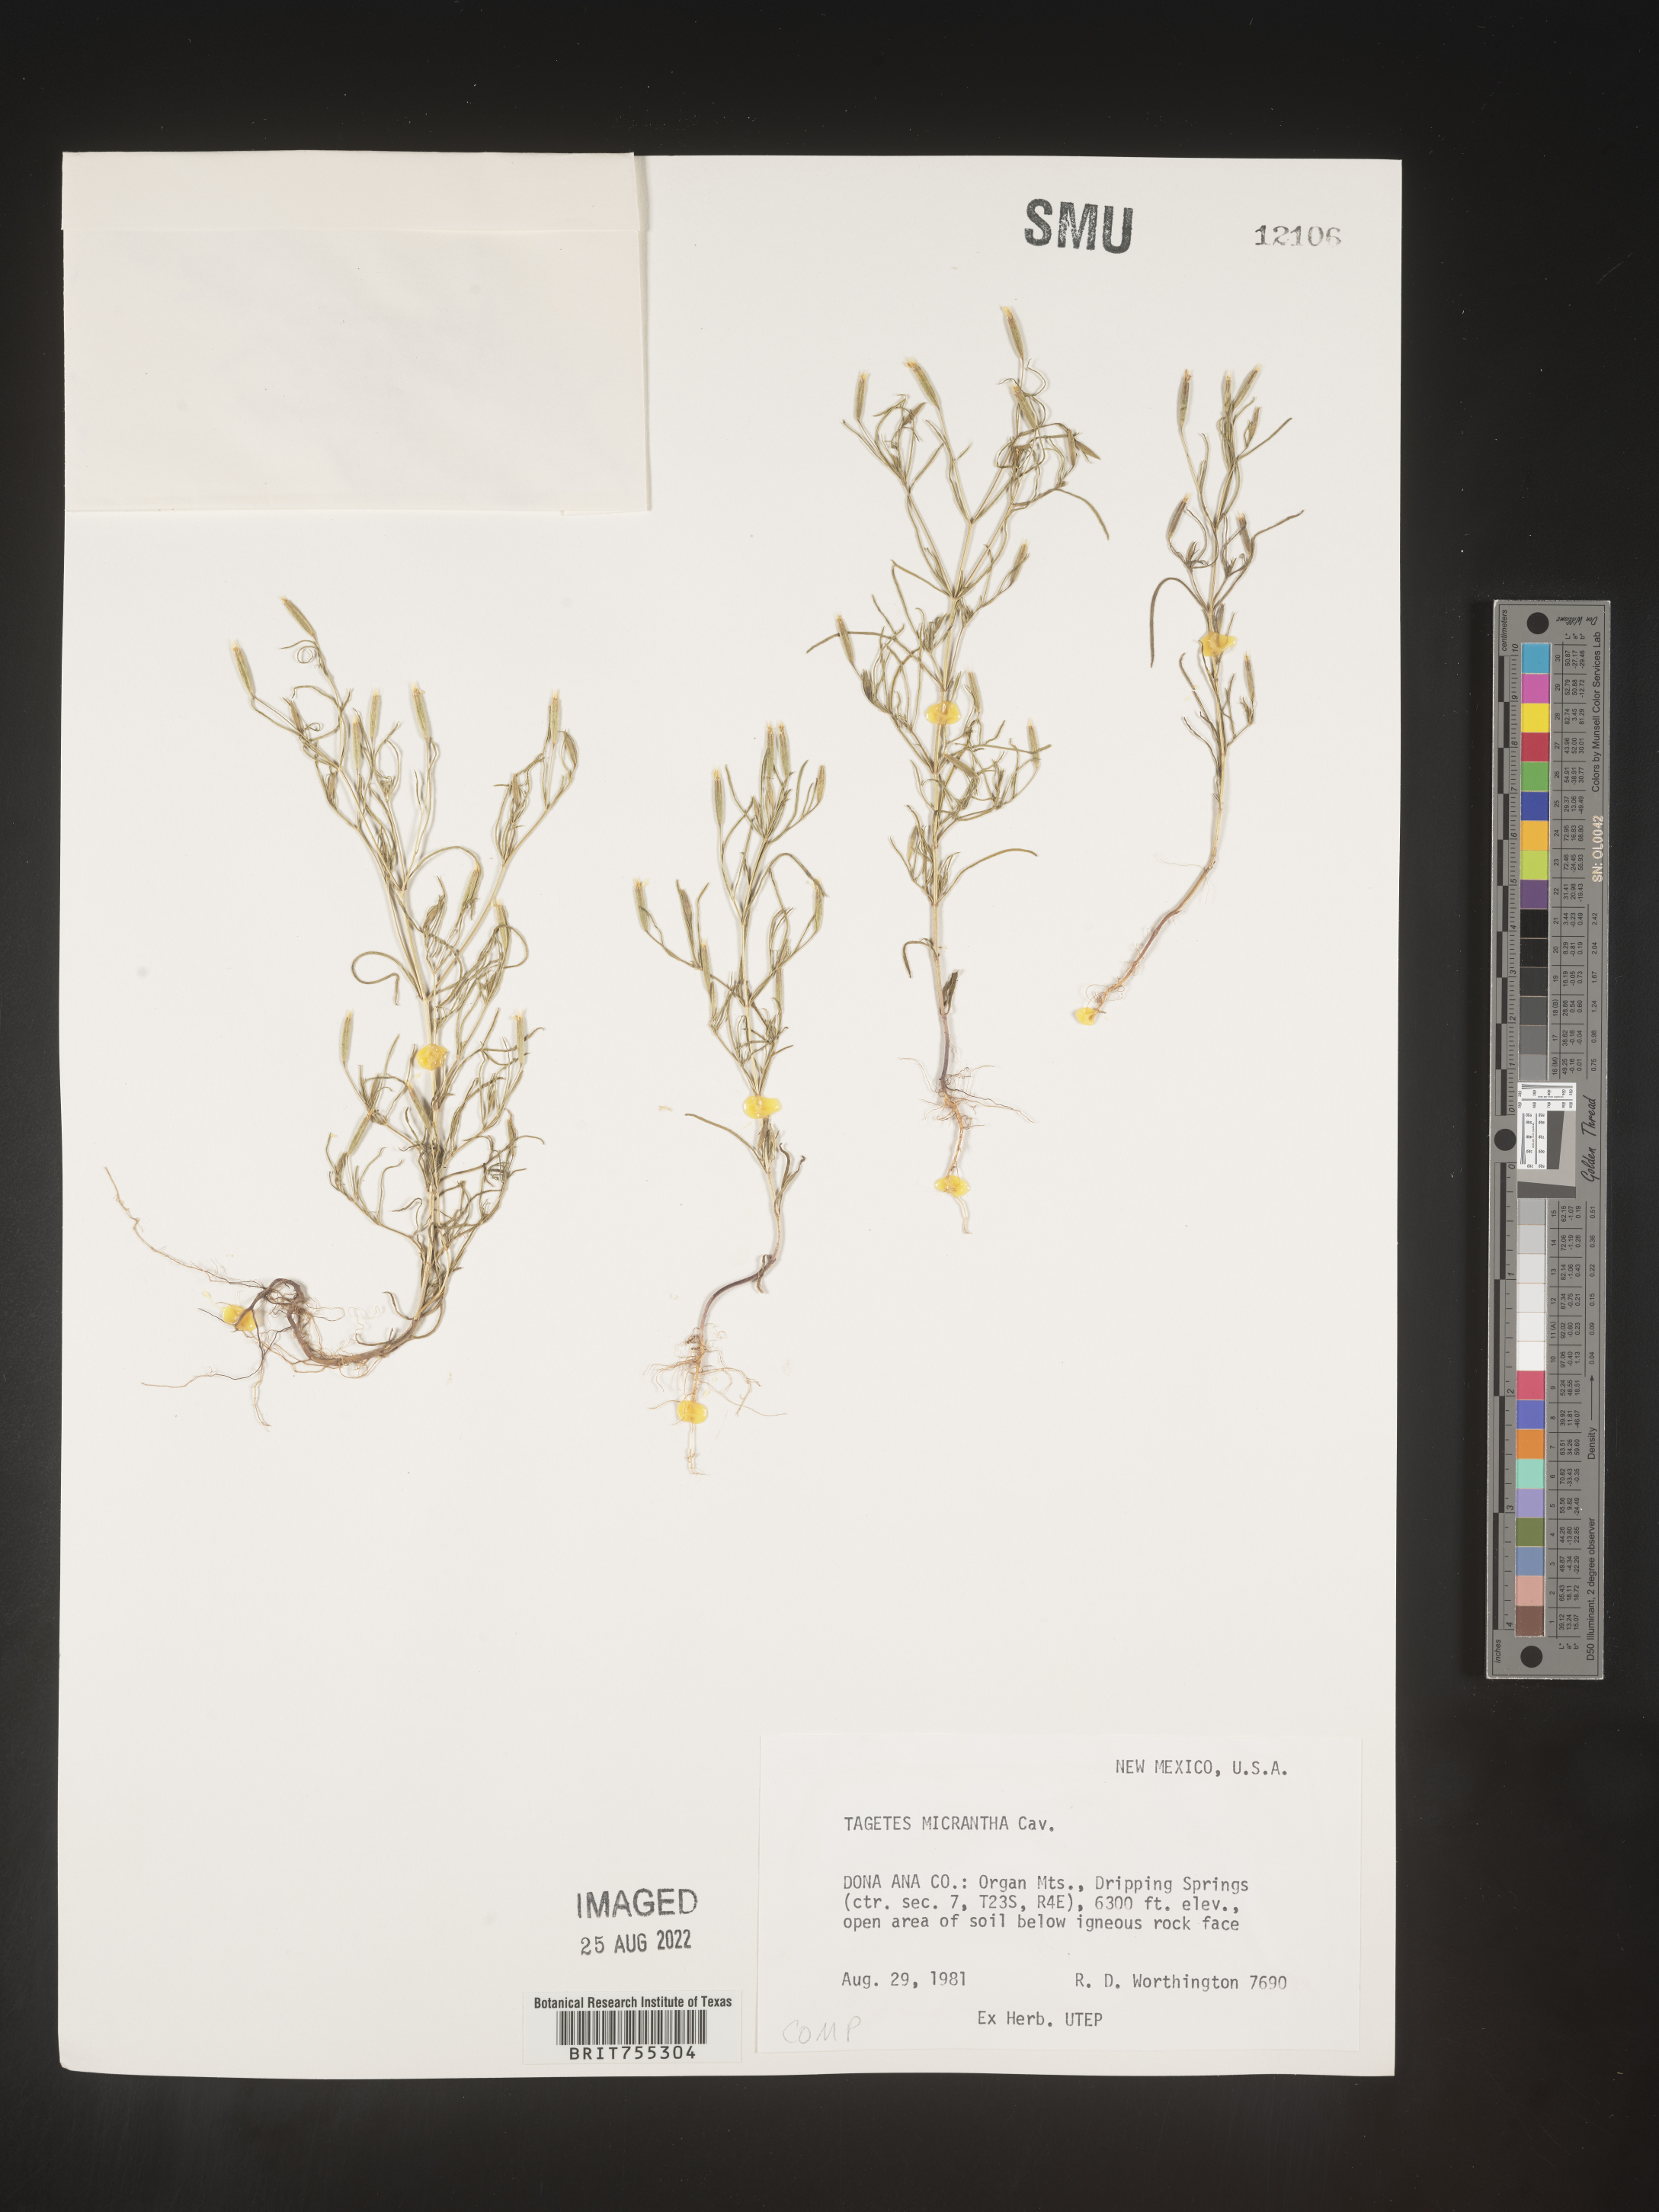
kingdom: Plantae
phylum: Tracheophyta
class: Magnoliopsida
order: Asterales
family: Asteraceae
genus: Tagetes
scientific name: Tagetes
